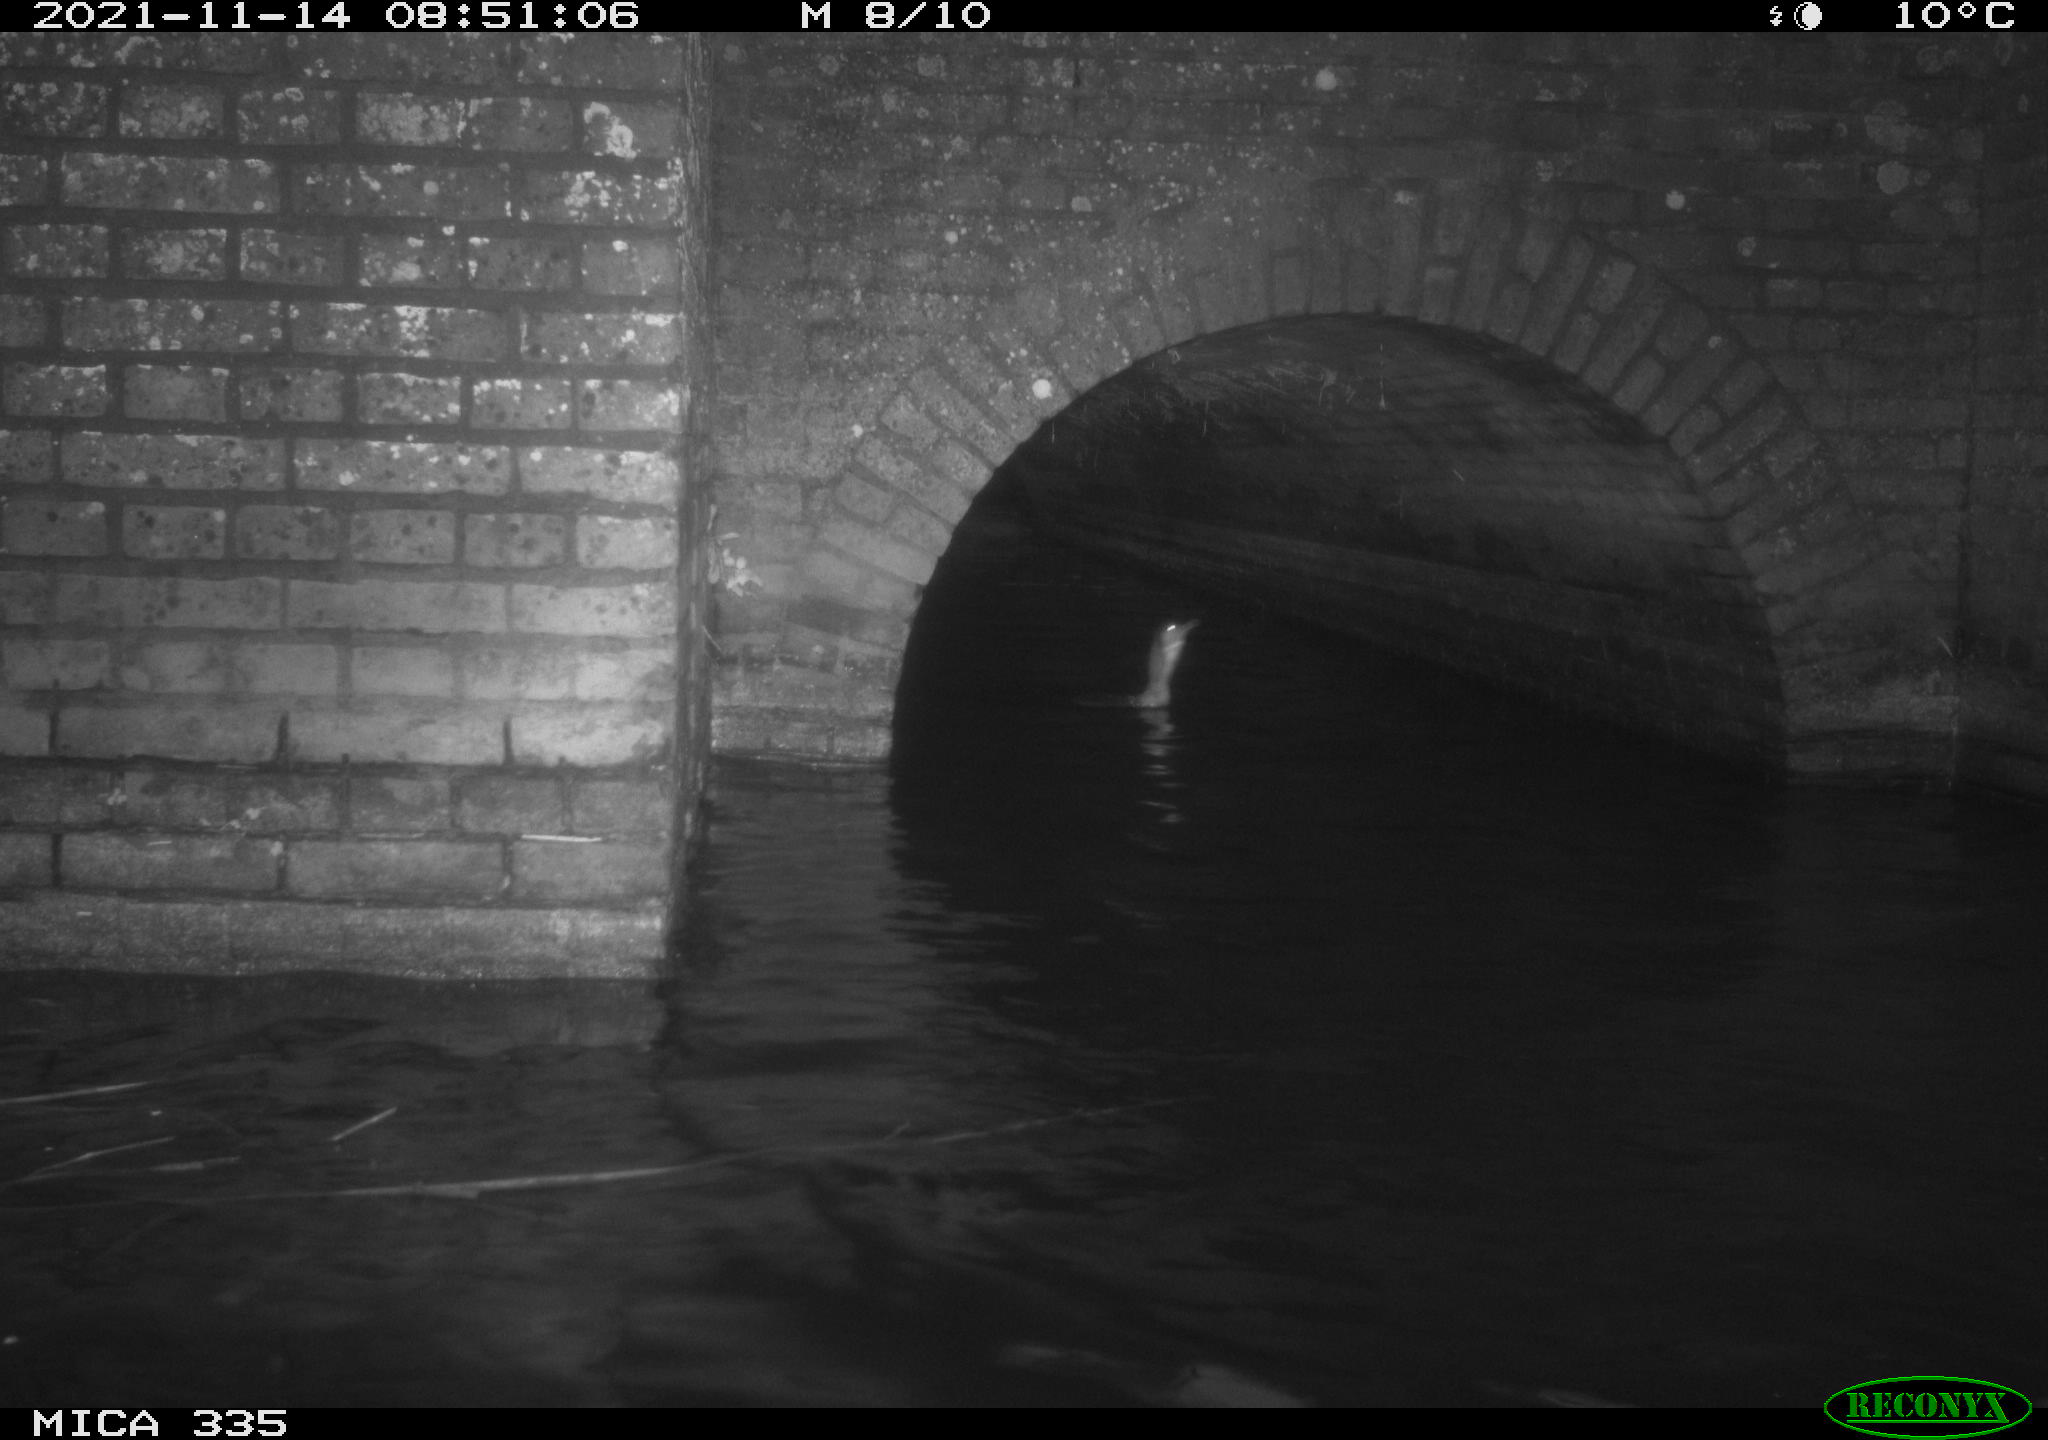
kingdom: Animalia
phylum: Chordata
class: Aves
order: Suliformes
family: Phalacrocoracidae
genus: Phalacrocorax
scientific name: Phalacrocorax carbo
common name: Great cormorant
